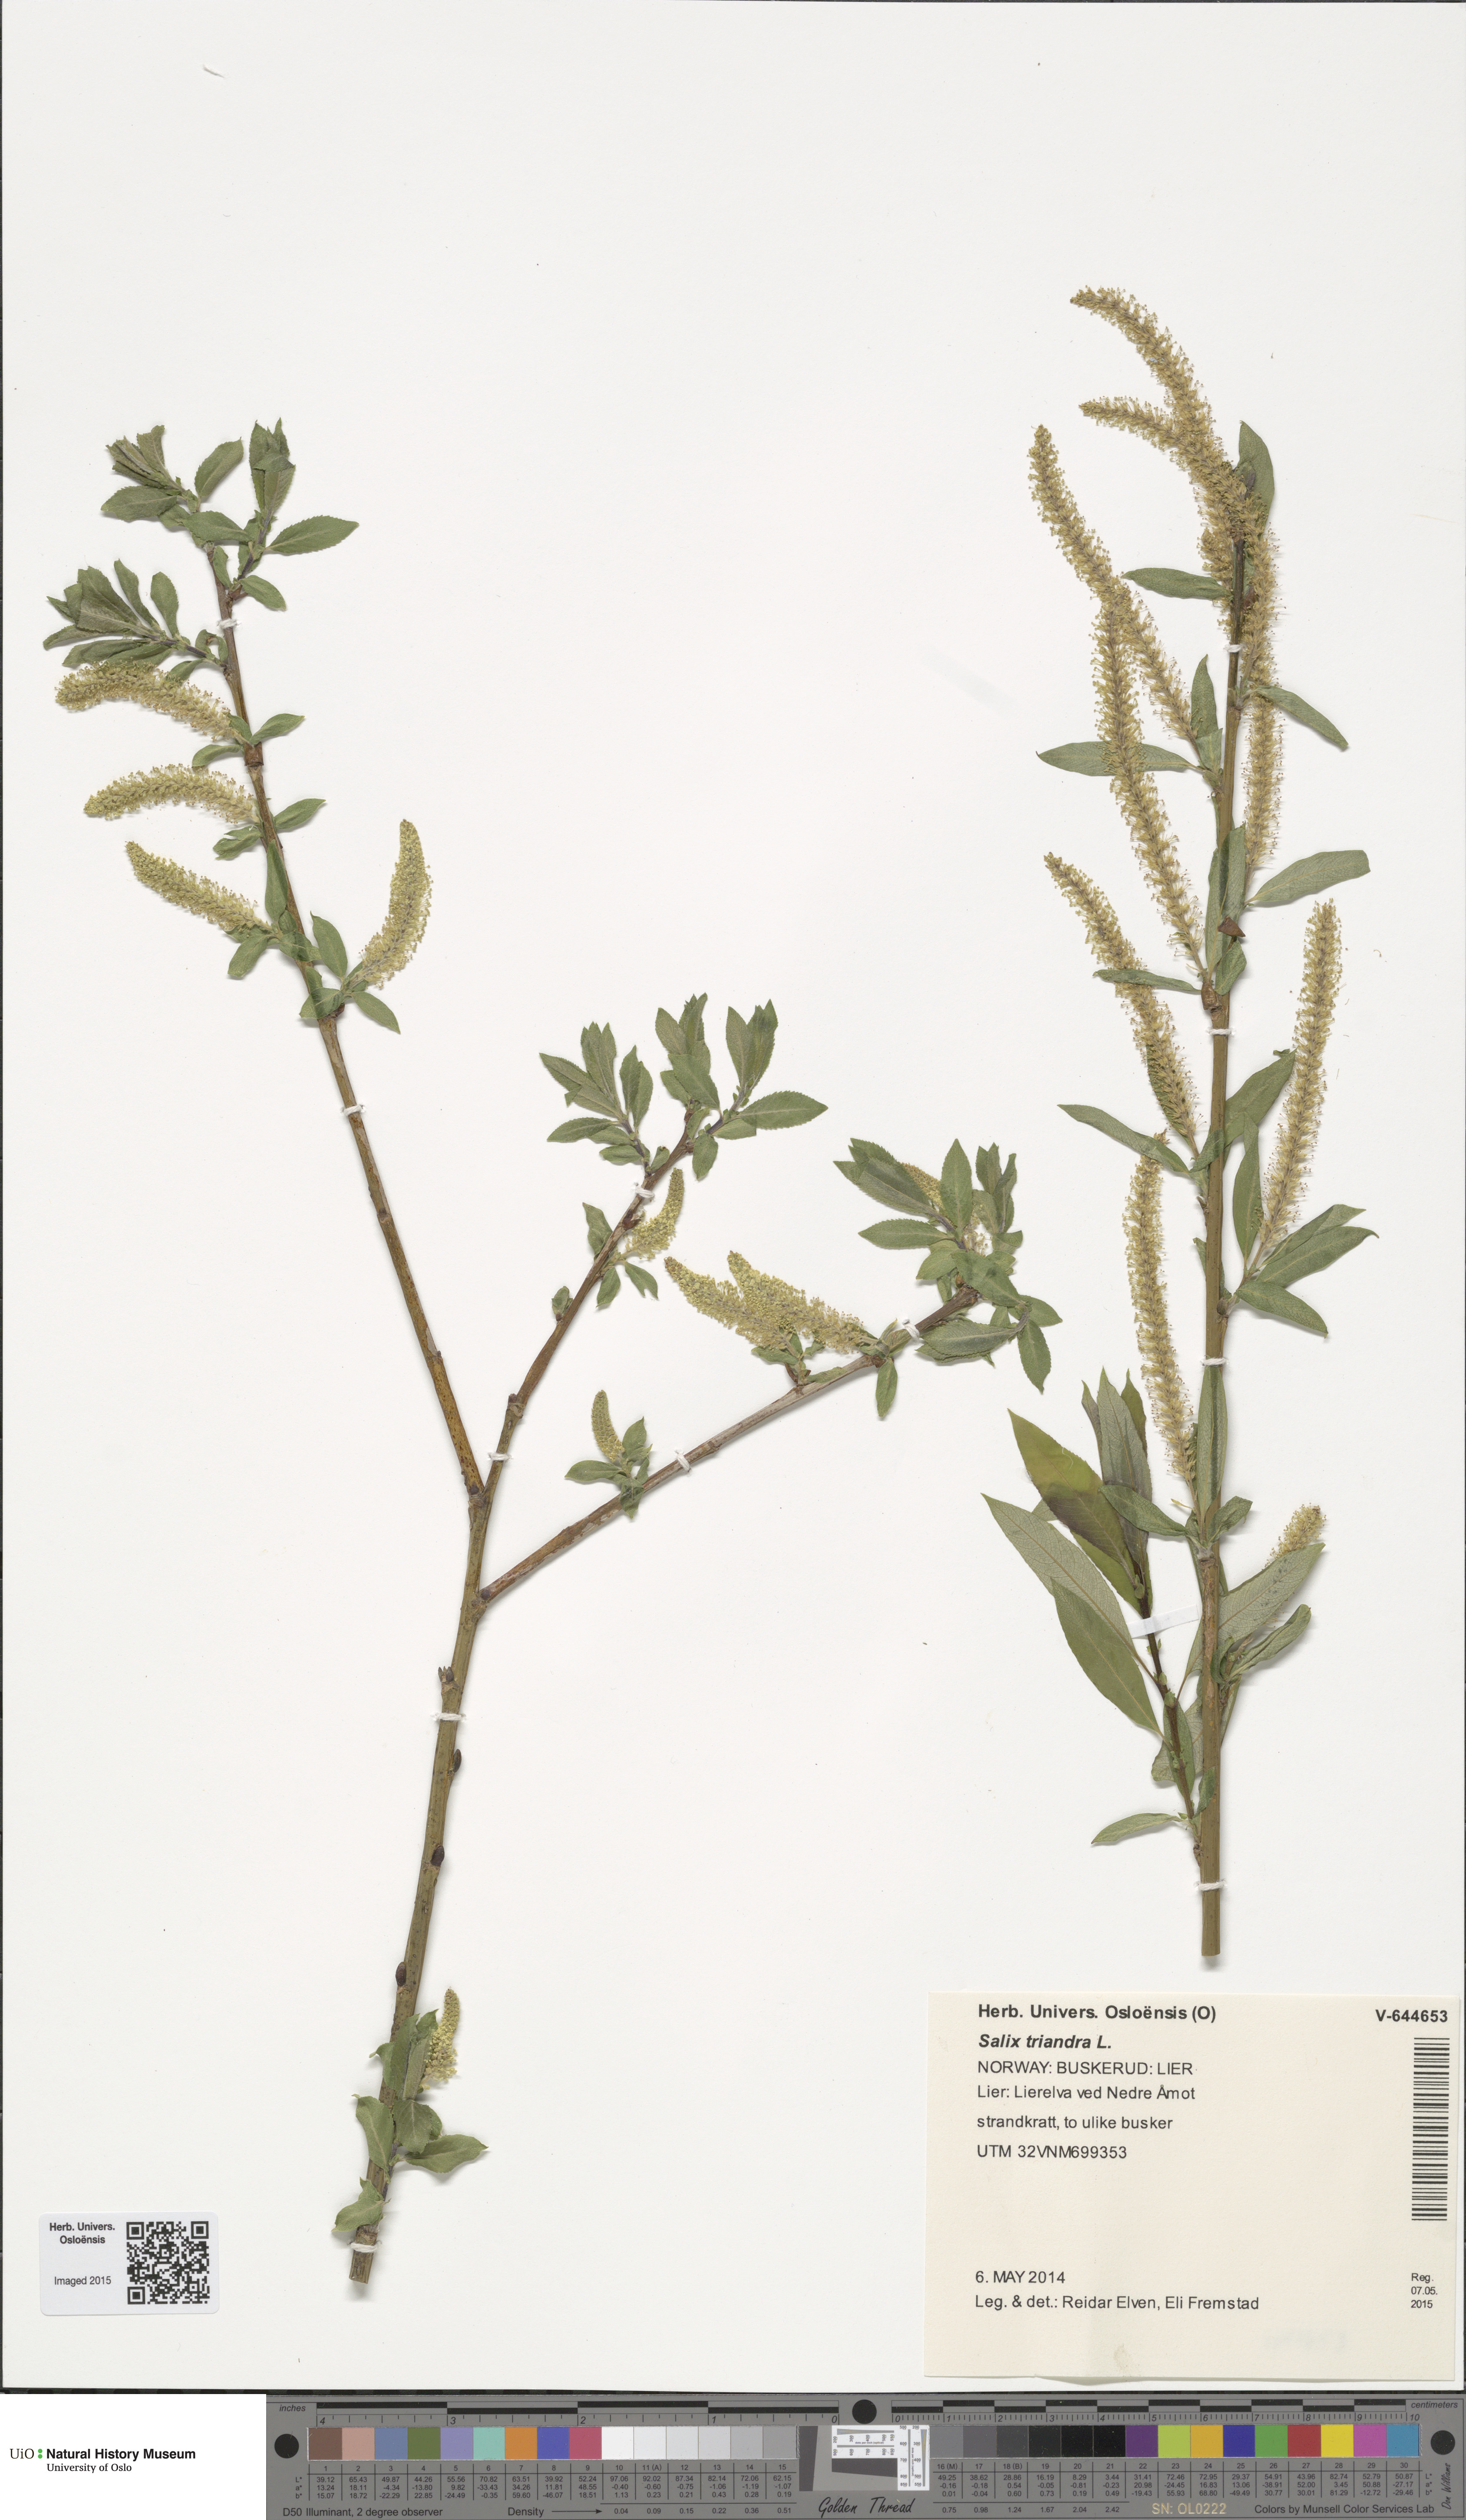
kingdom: Plantae
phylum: Tracheophyta
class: Magnoliopsida
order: Malpighiales
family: Salicaceae
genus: Salix
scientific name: Salix triandra
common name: Almond willow
